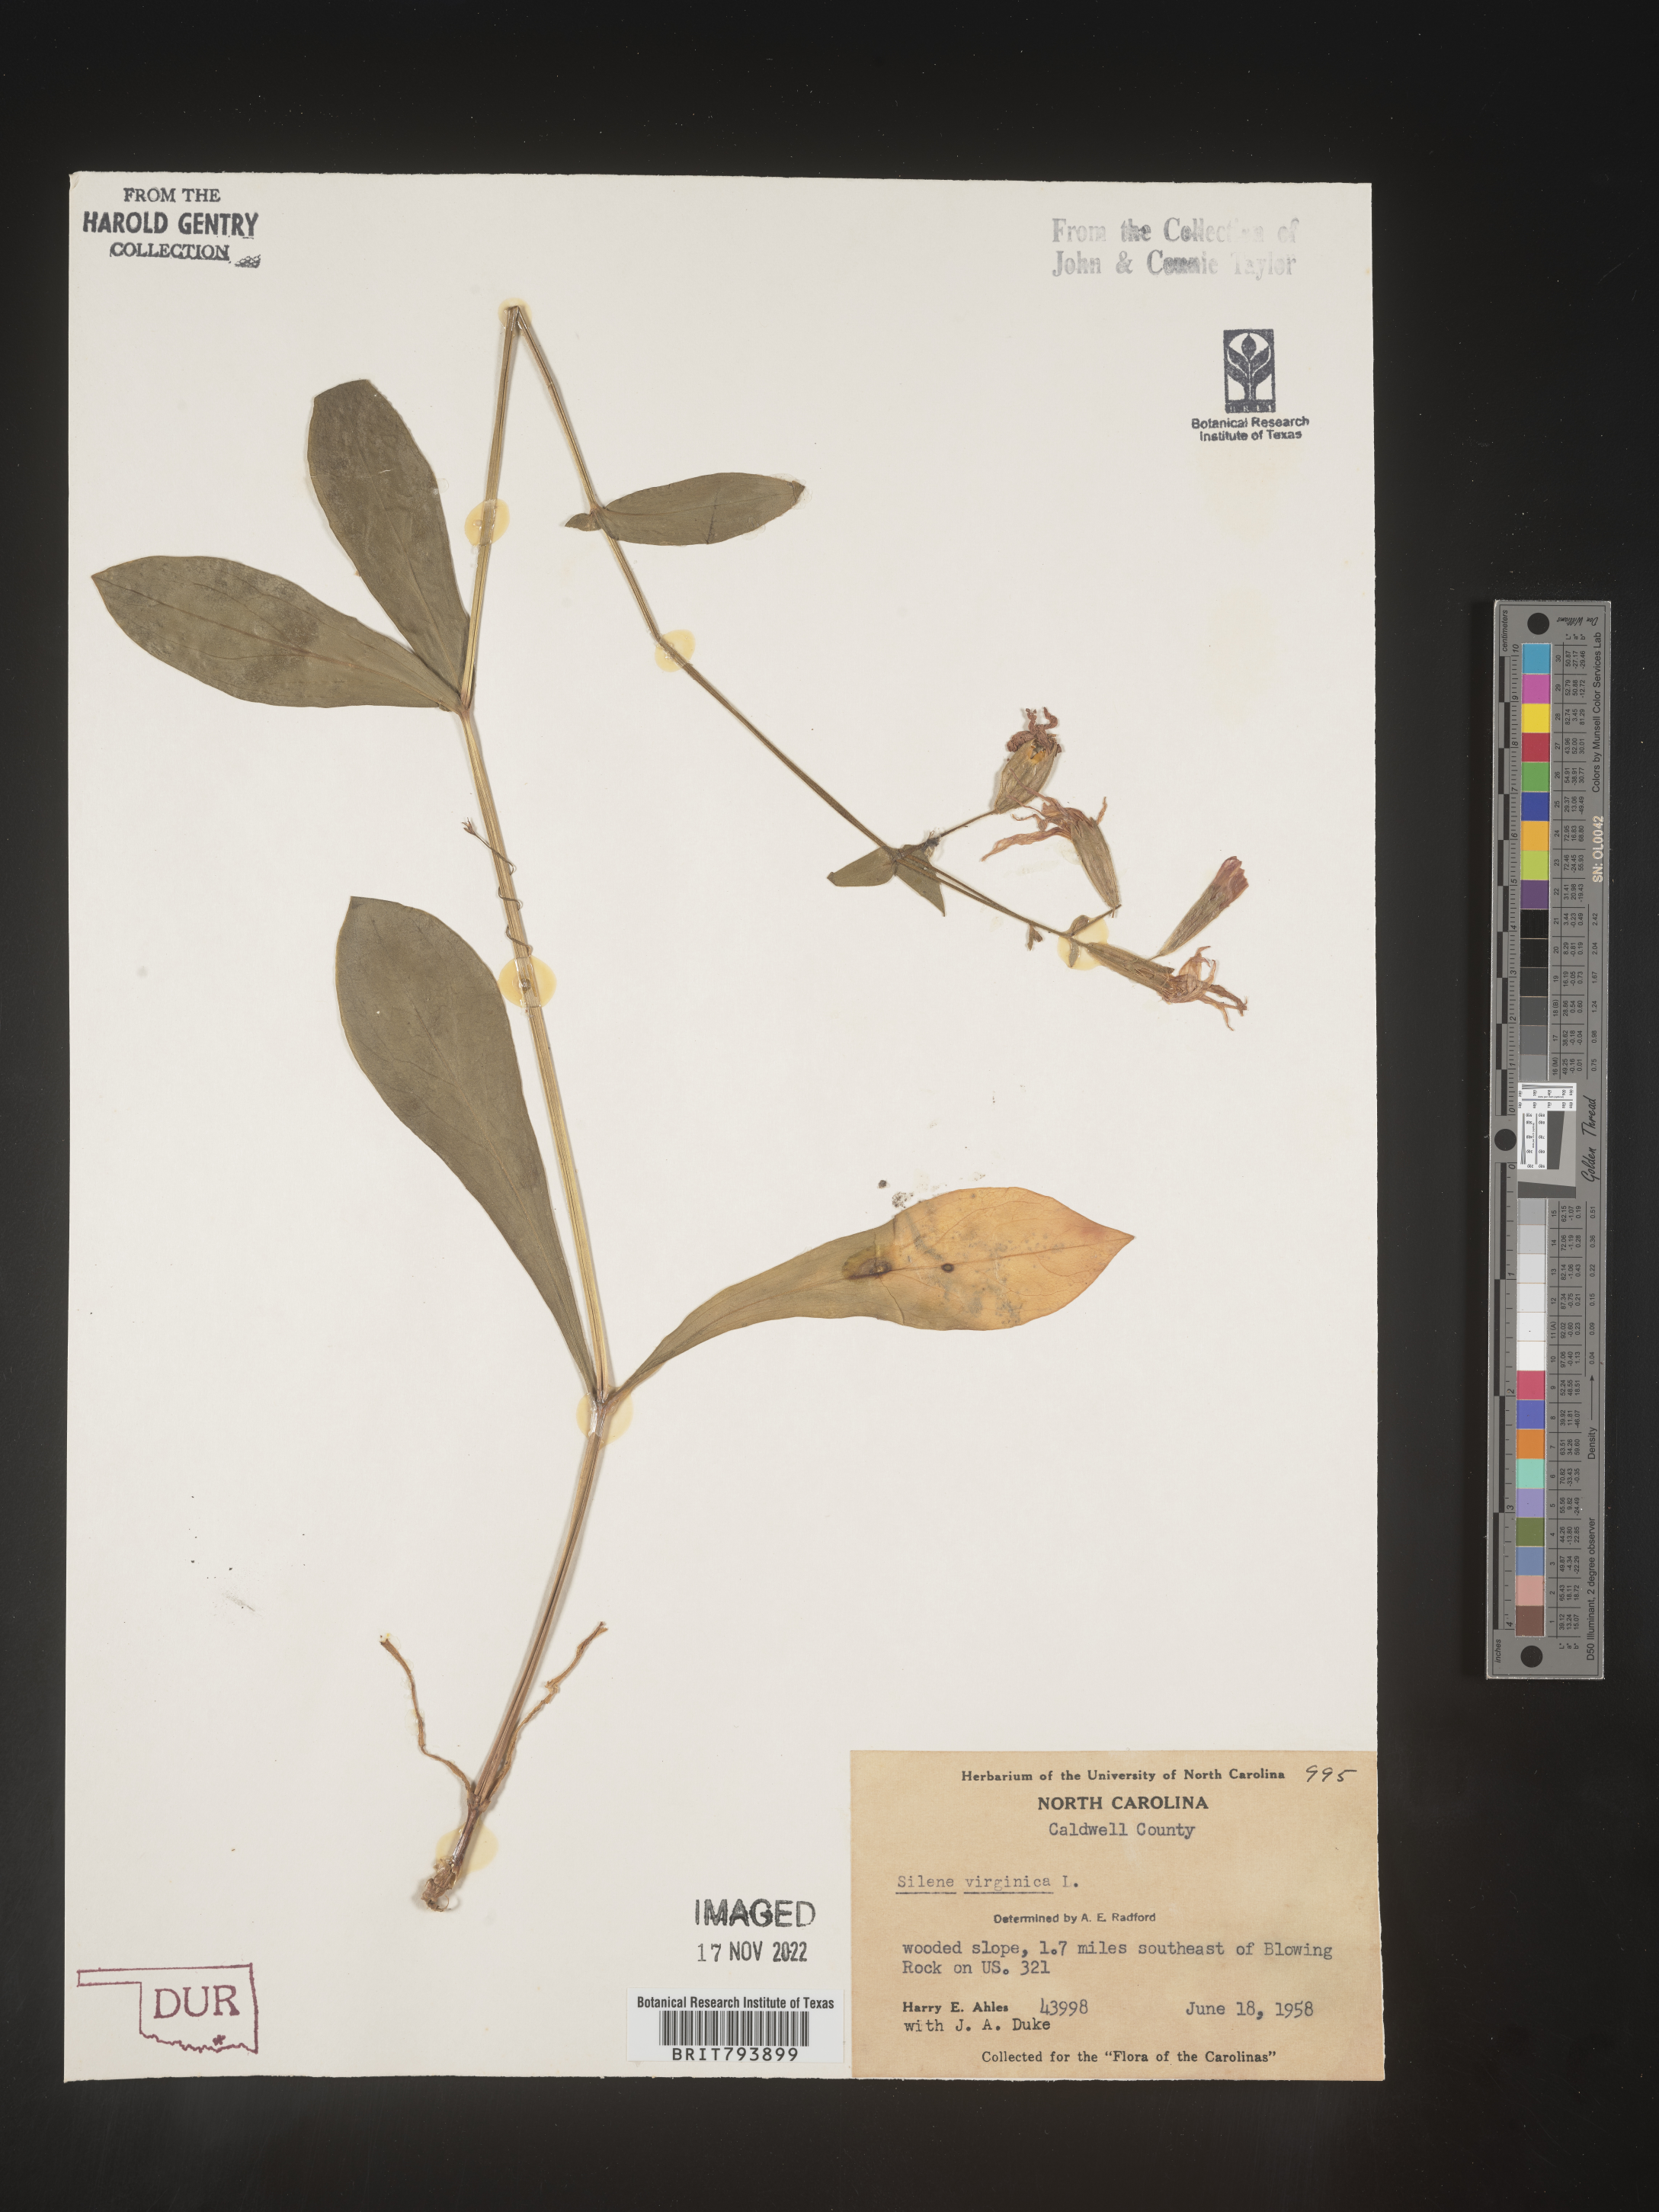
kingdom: Plantae
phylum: Tracheophyta
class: Magnoliopsida
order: Caryophyllales
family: Caryophyllaceae
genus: Silene
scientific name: Silene virginica
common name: Fire-pink
